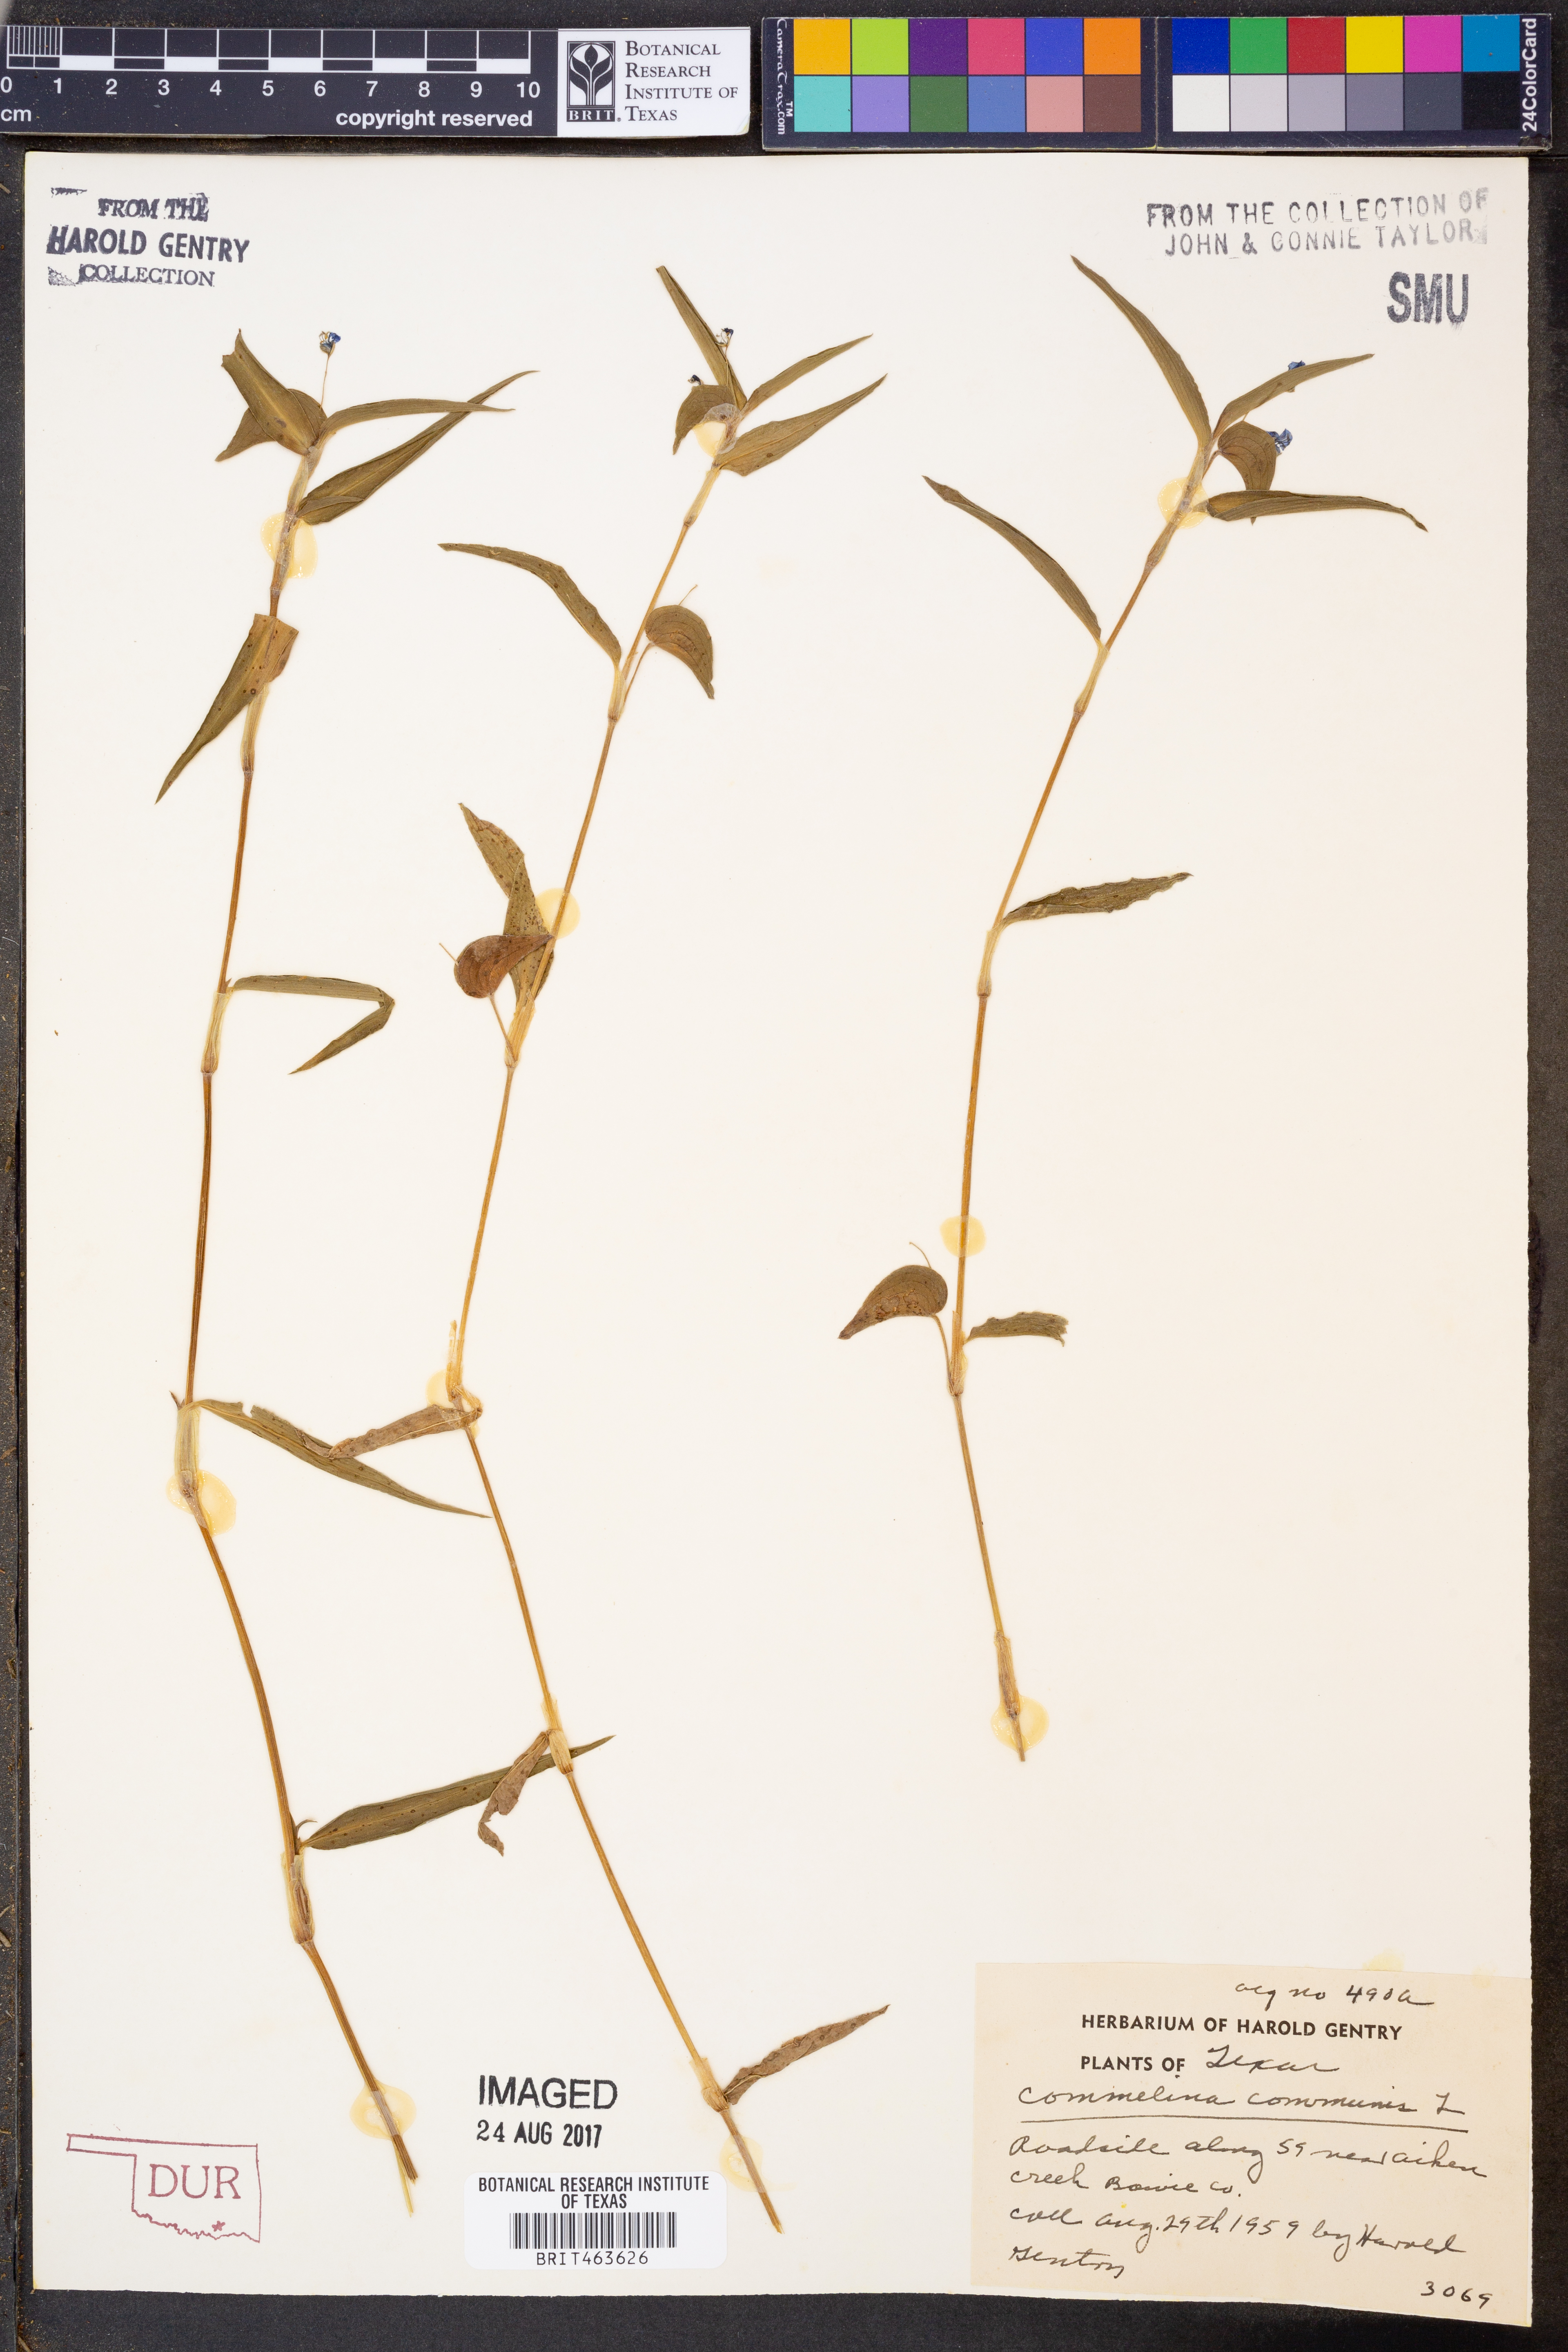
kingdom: Plantae
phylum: Tracheophyta
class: Liliopsida
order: Commelinales
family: Commelinaceae
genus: Commelina
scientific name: Commelina communis
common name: Asiatic dayflower
